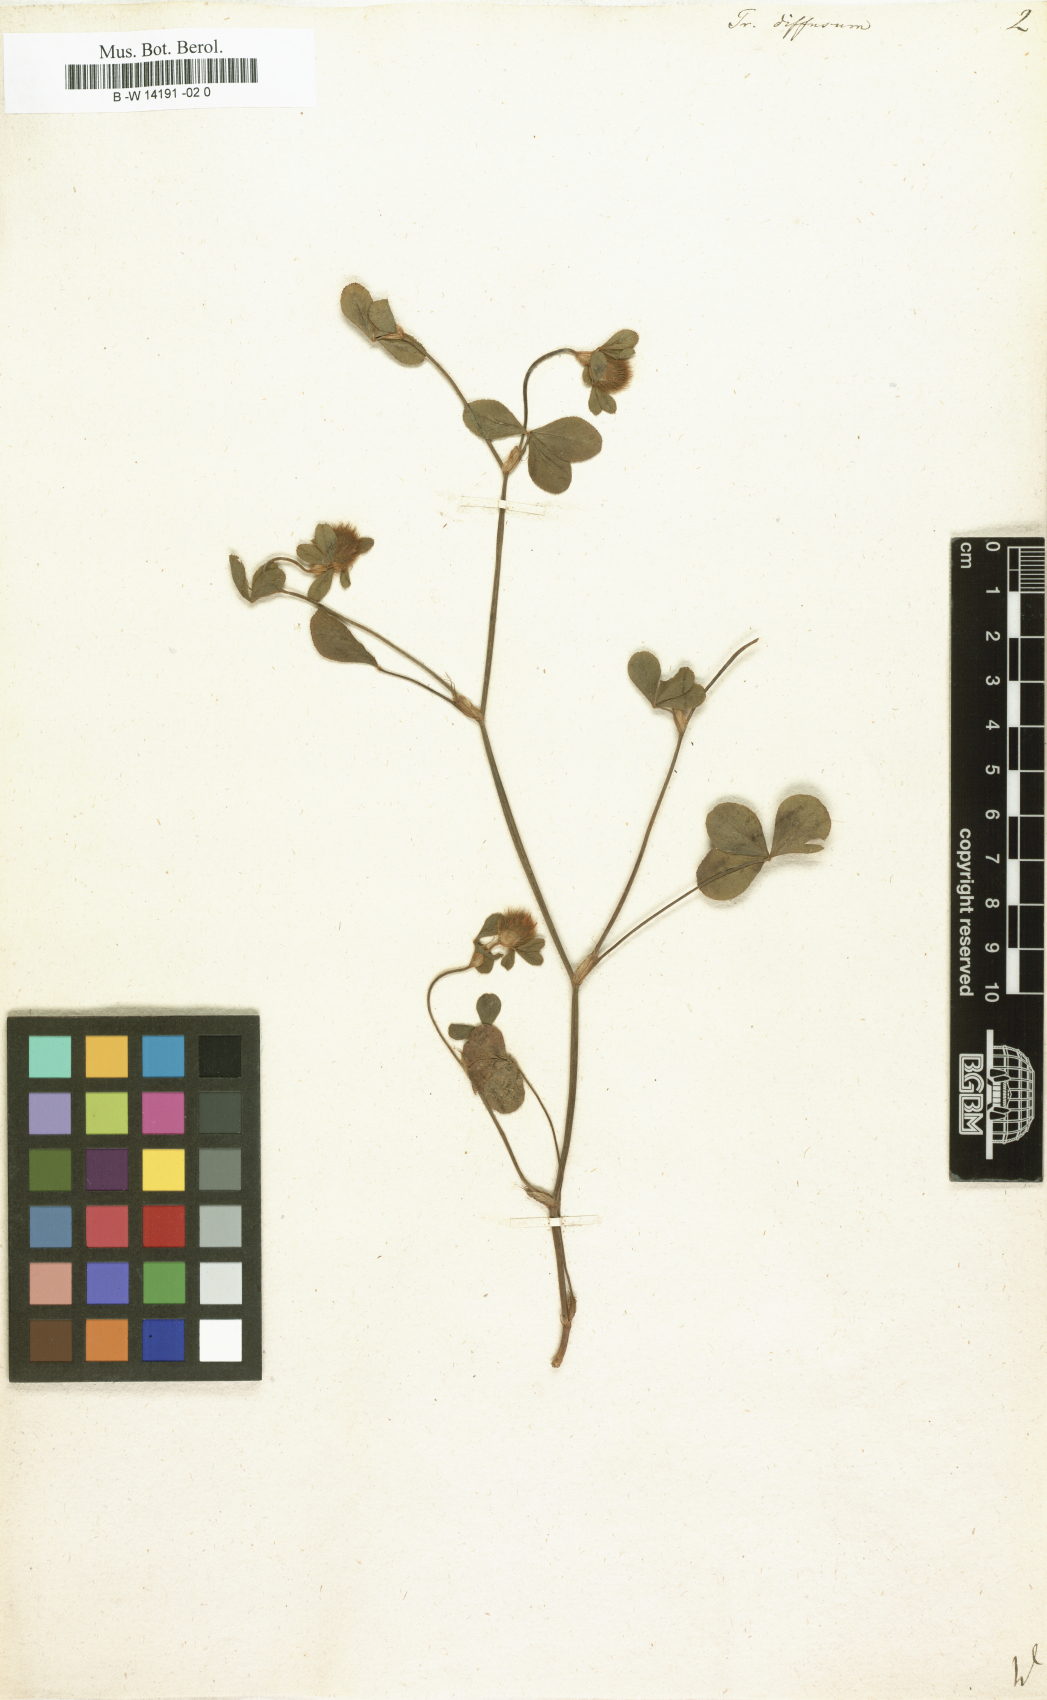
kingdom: Plantae
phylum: Tracheophyta
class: Magnoliopsida
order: Fabales
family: Fabaceae
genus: Trifolium
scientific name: Trifolium diffusum
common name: Diffuse clover
